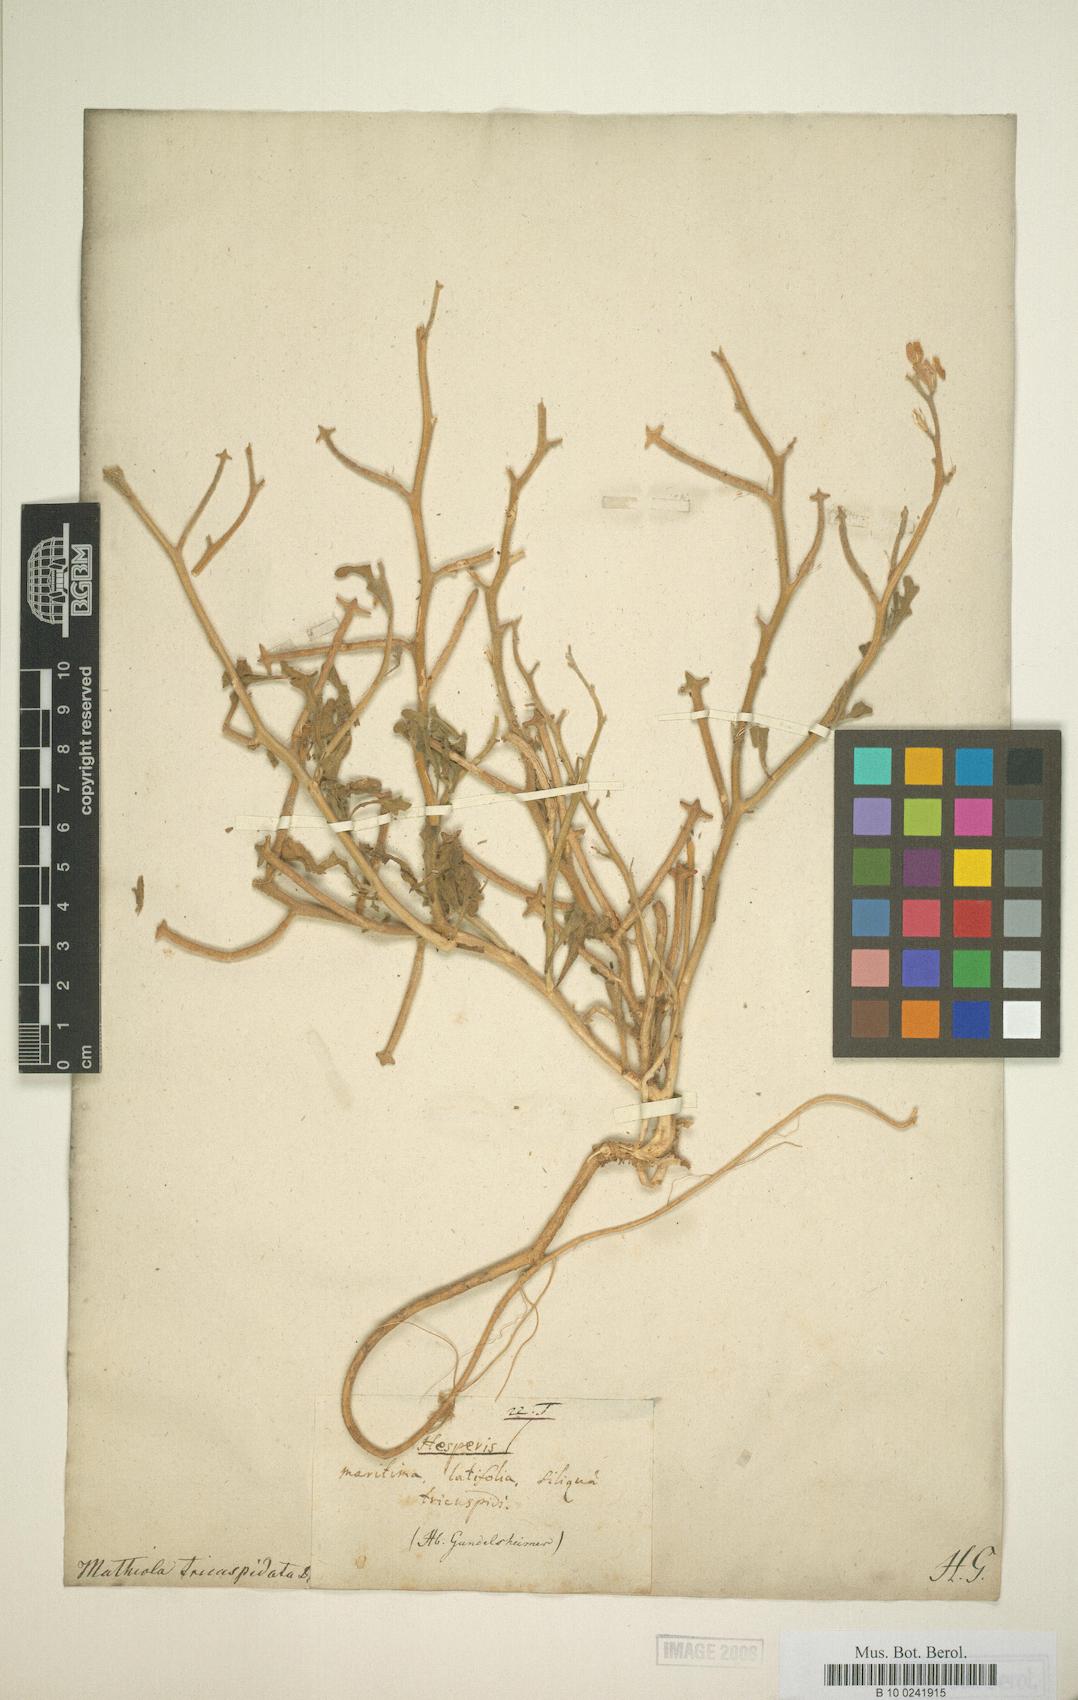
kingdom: Plantae
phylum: Tracheophyta
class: Magnoliopsida
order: Brassicales
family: Brassicaceae
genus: Matthiola
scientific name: Matthiola tricuspidata
